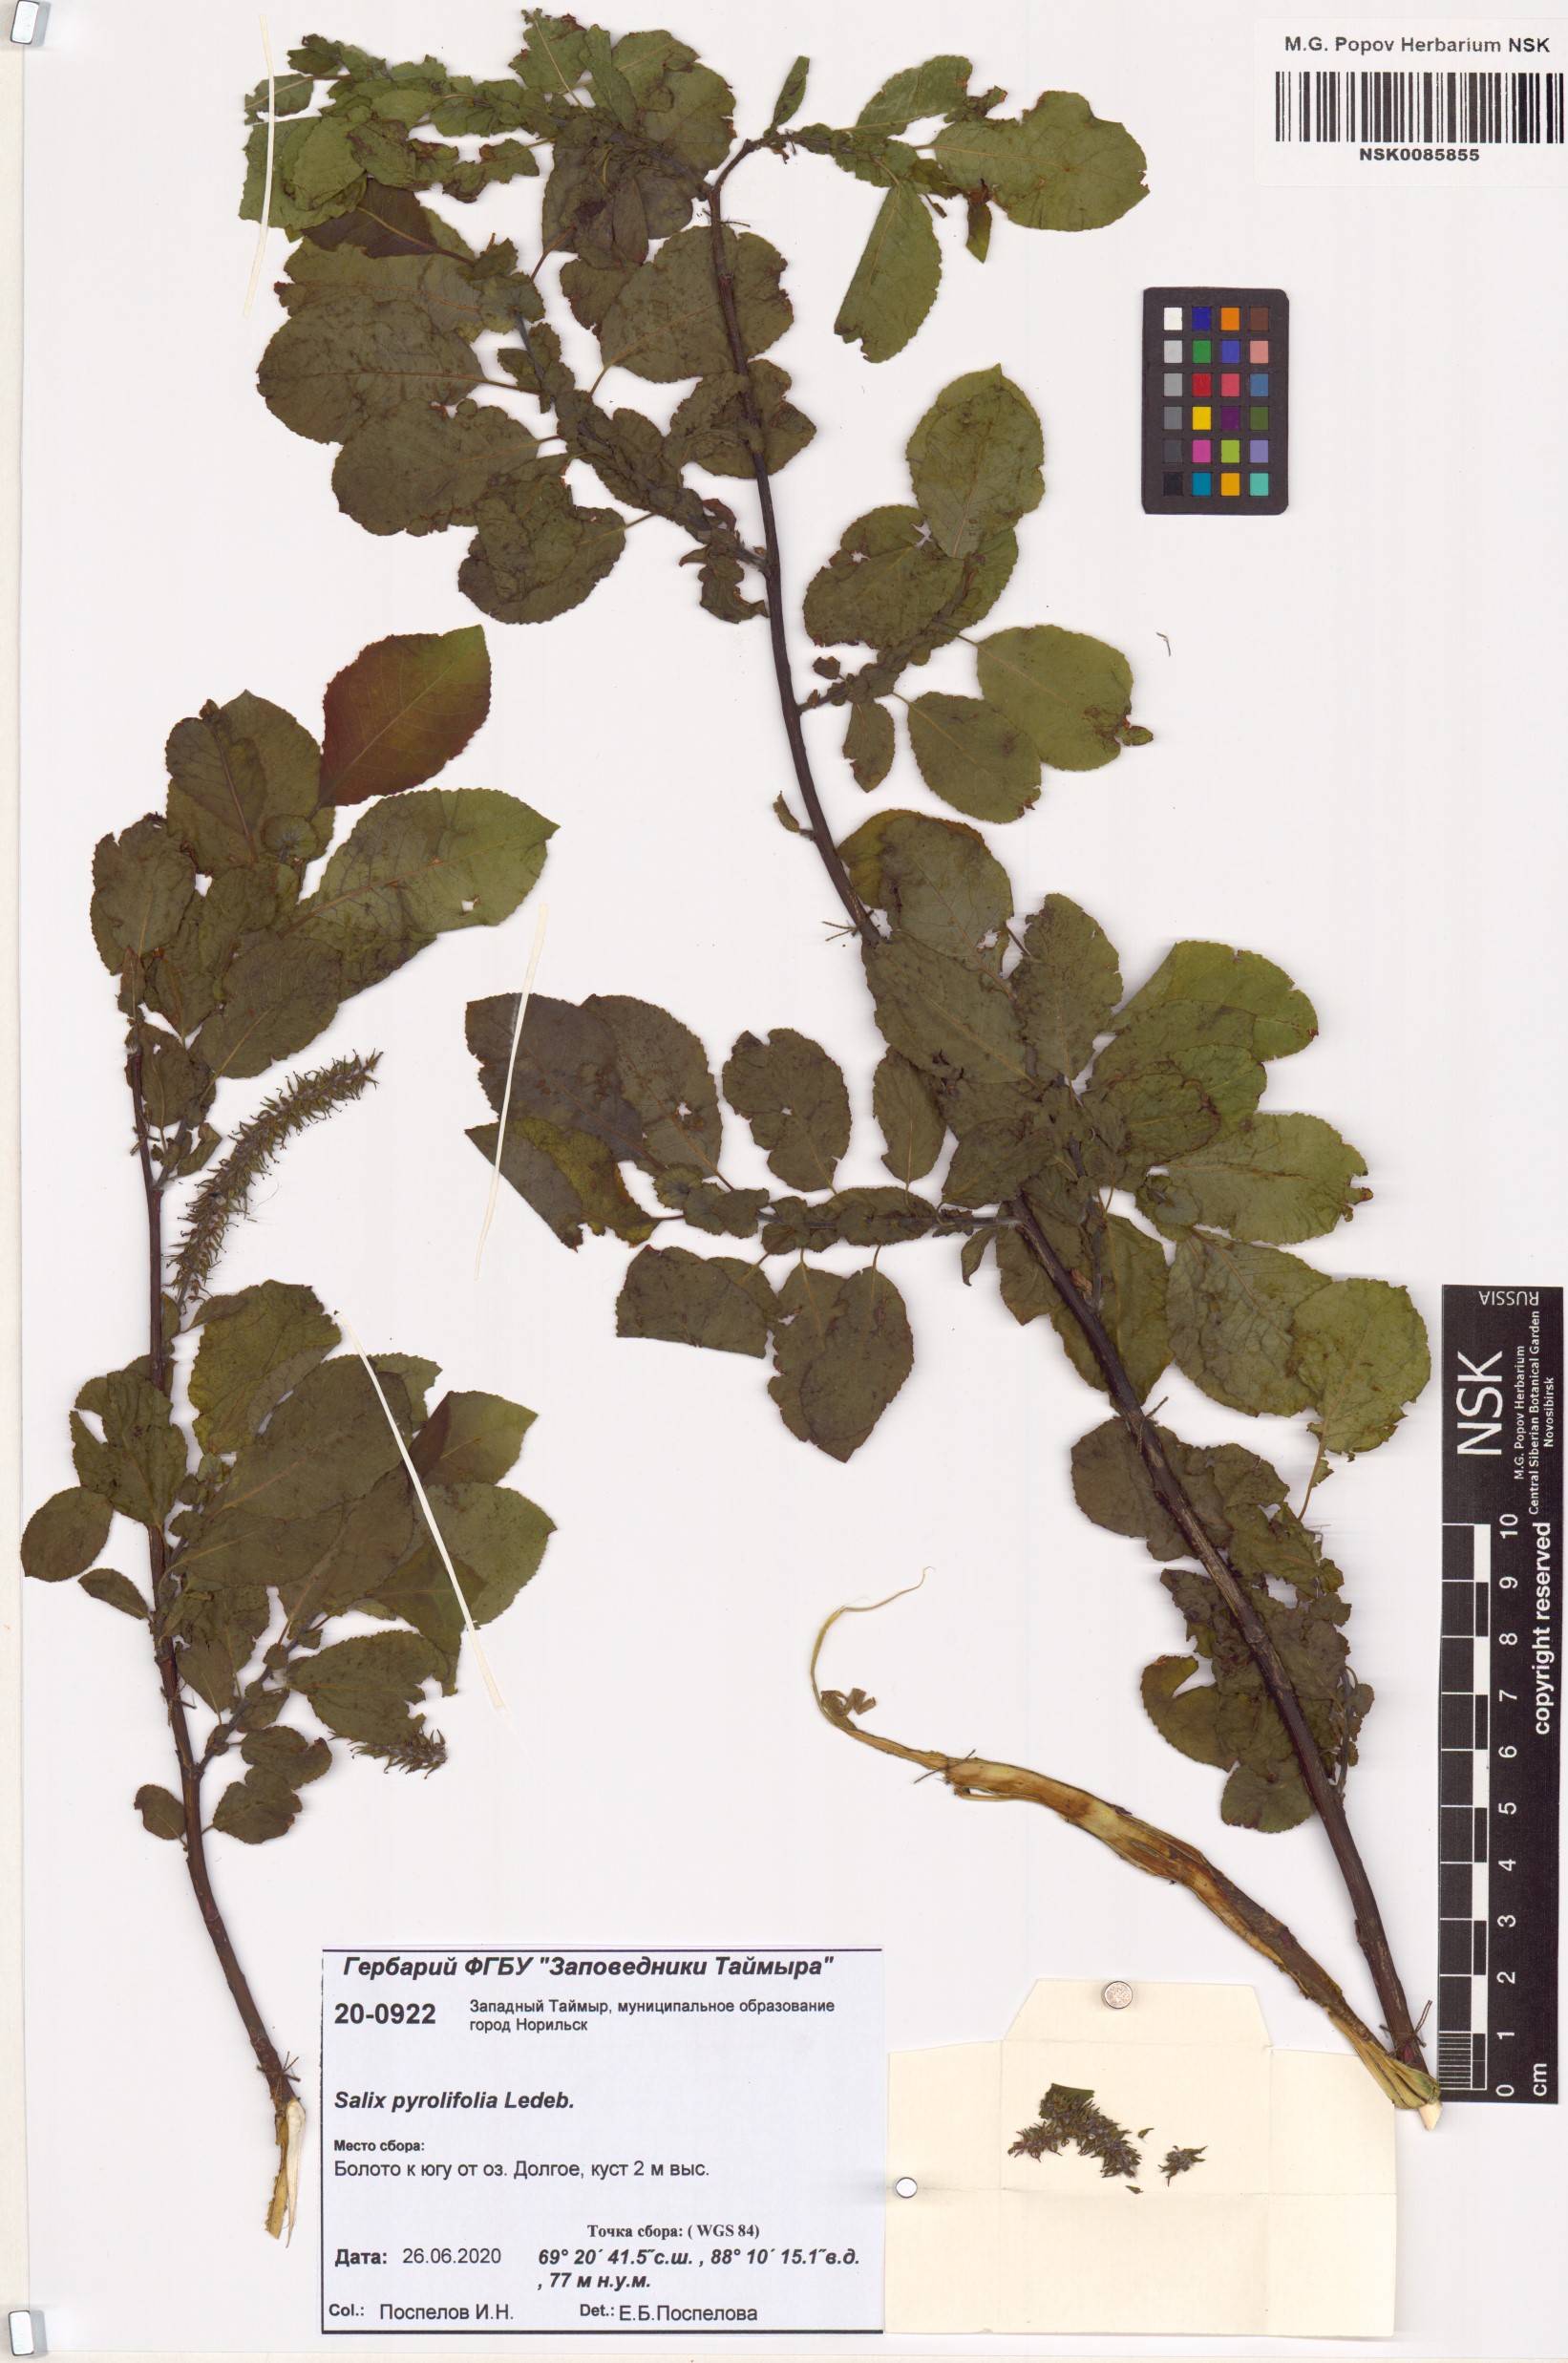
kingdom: Plantae
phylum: Tracheophyta
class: Magnoliopsida
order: Malpighiales
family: Salicaceae
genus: Salix
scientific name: Salix phylicifolia
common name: Tea-leaved willow
